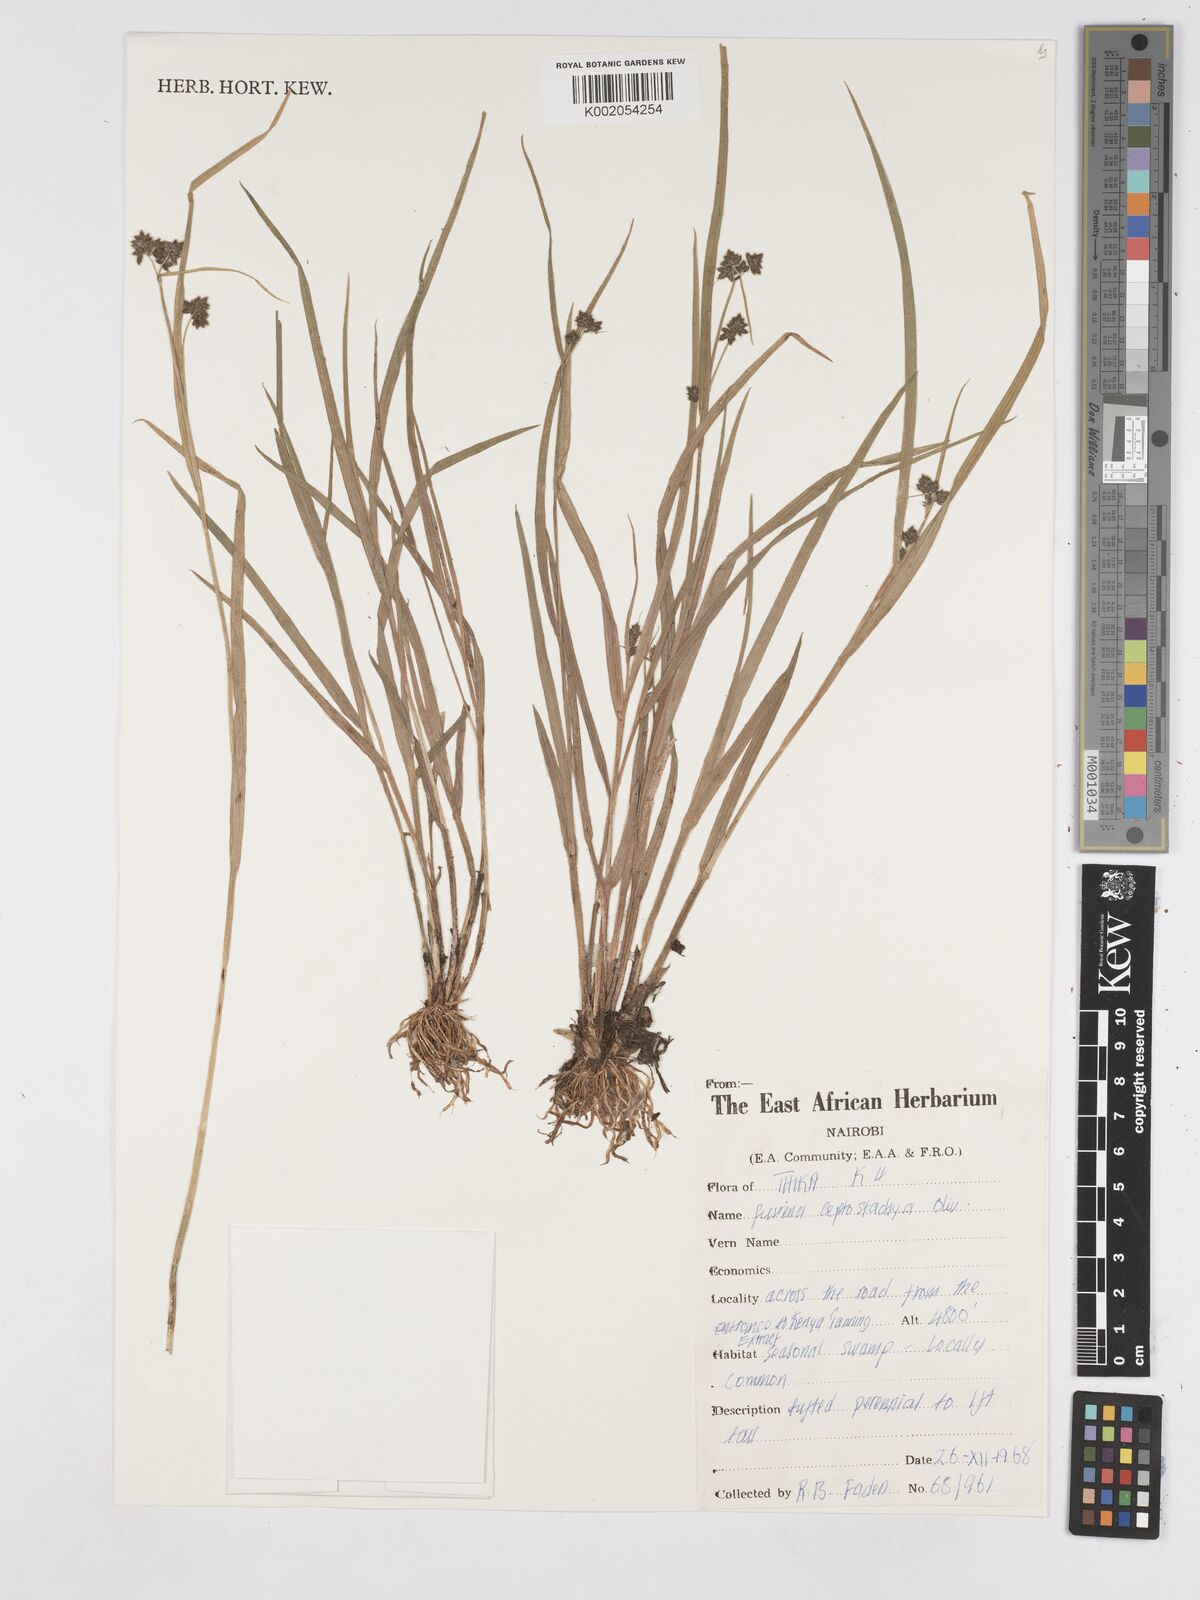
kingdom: Plantae
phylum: Tracheophyta
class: Liliopsida
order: Poales
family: Cyperaceae
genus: Fuirena
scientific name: Fuirena leptostachya
